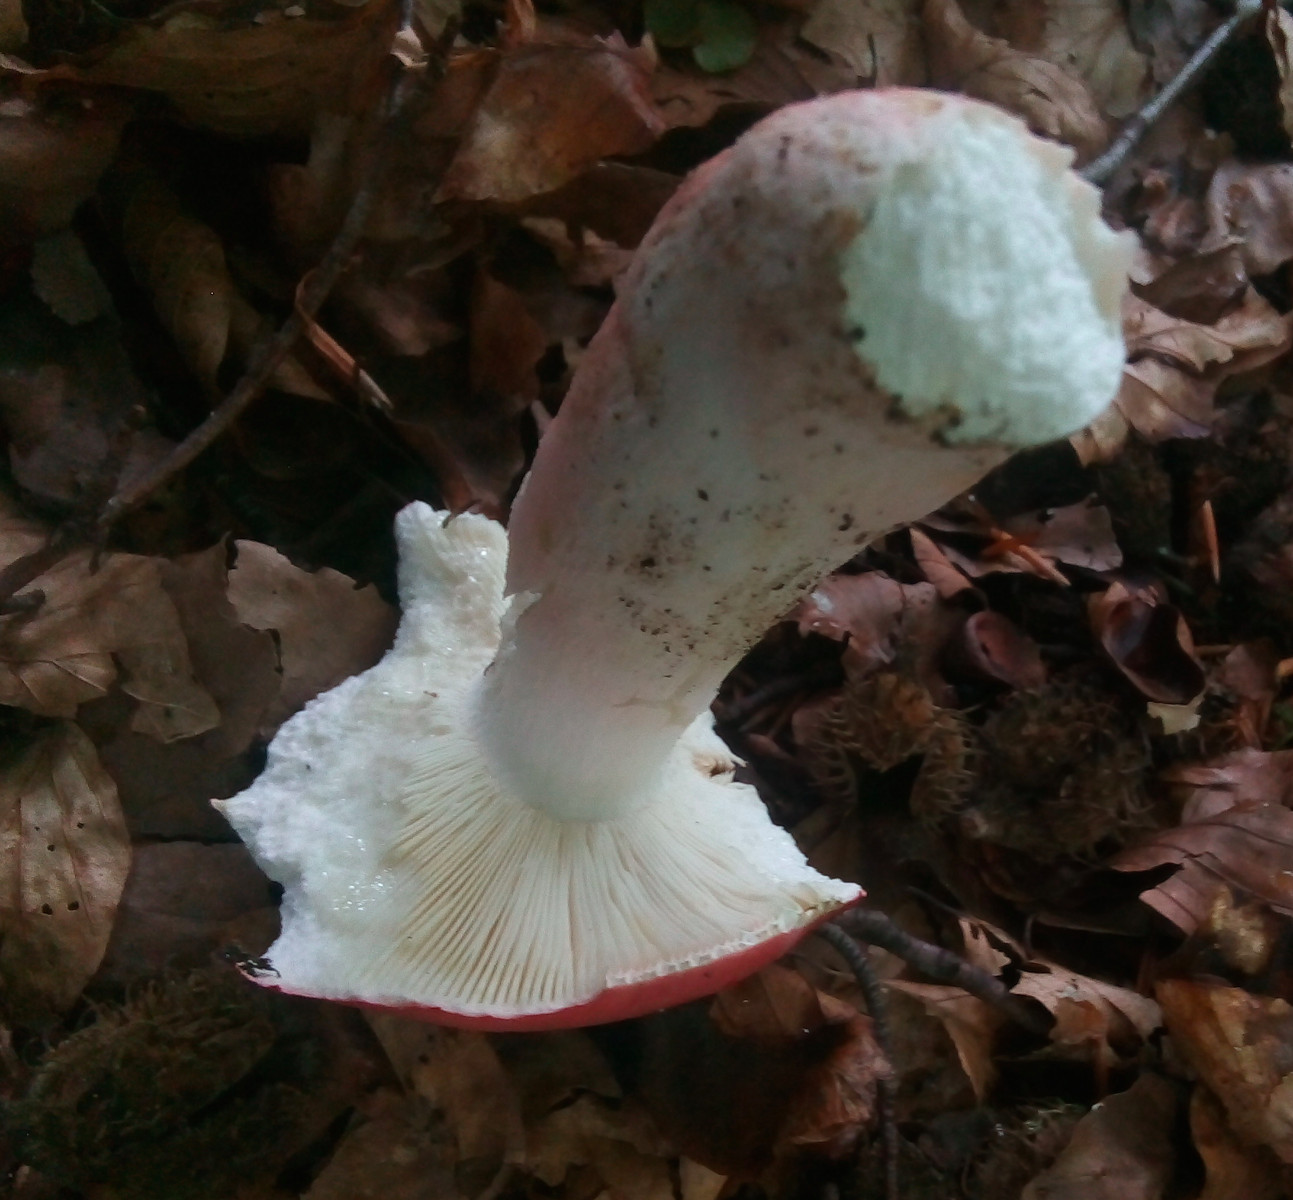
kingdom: Fungi
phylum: Basidiomycota
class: Agaricomycetes
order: Russulales
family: Russulaceae
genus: Russula
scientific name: Russula rosea
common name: fastkødet skørhat
